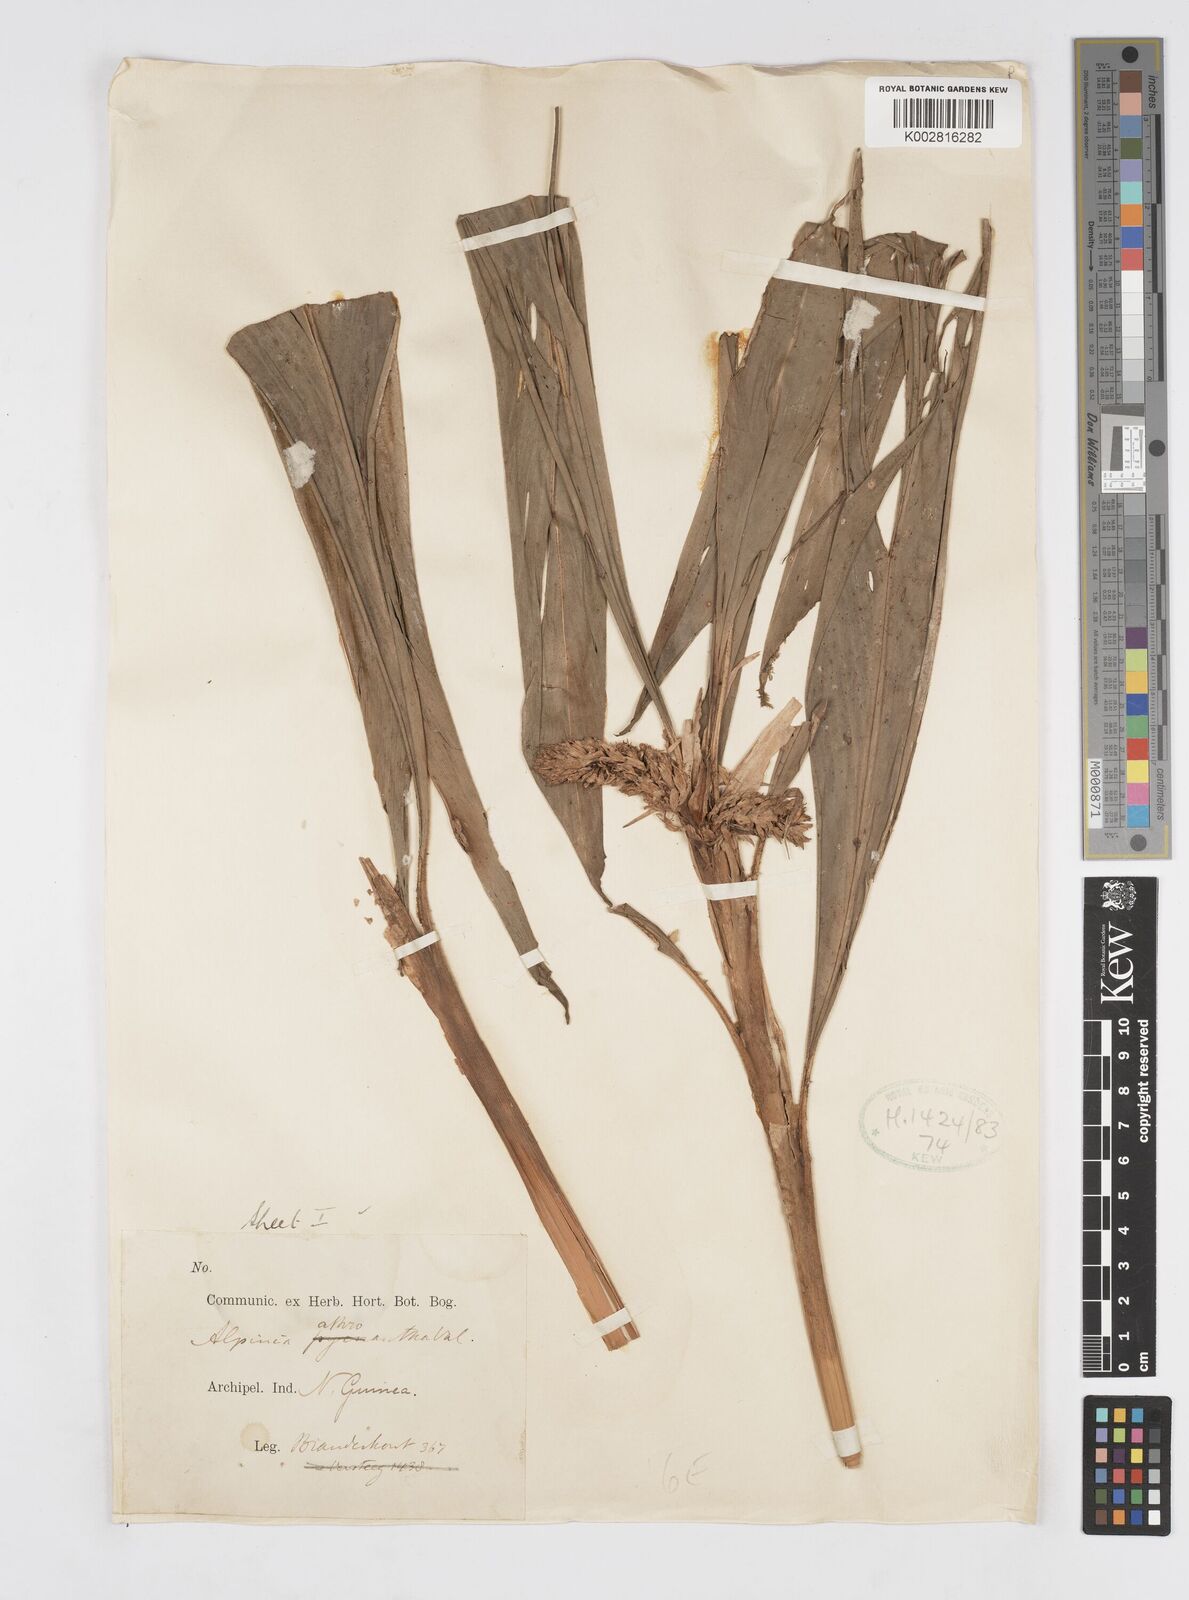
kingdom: Plantae
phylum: Tracheophyta
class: Liliopsida
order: Zingiberales
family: Zingiberaceae
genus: Alpinia
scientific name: Alpinia athroantha
